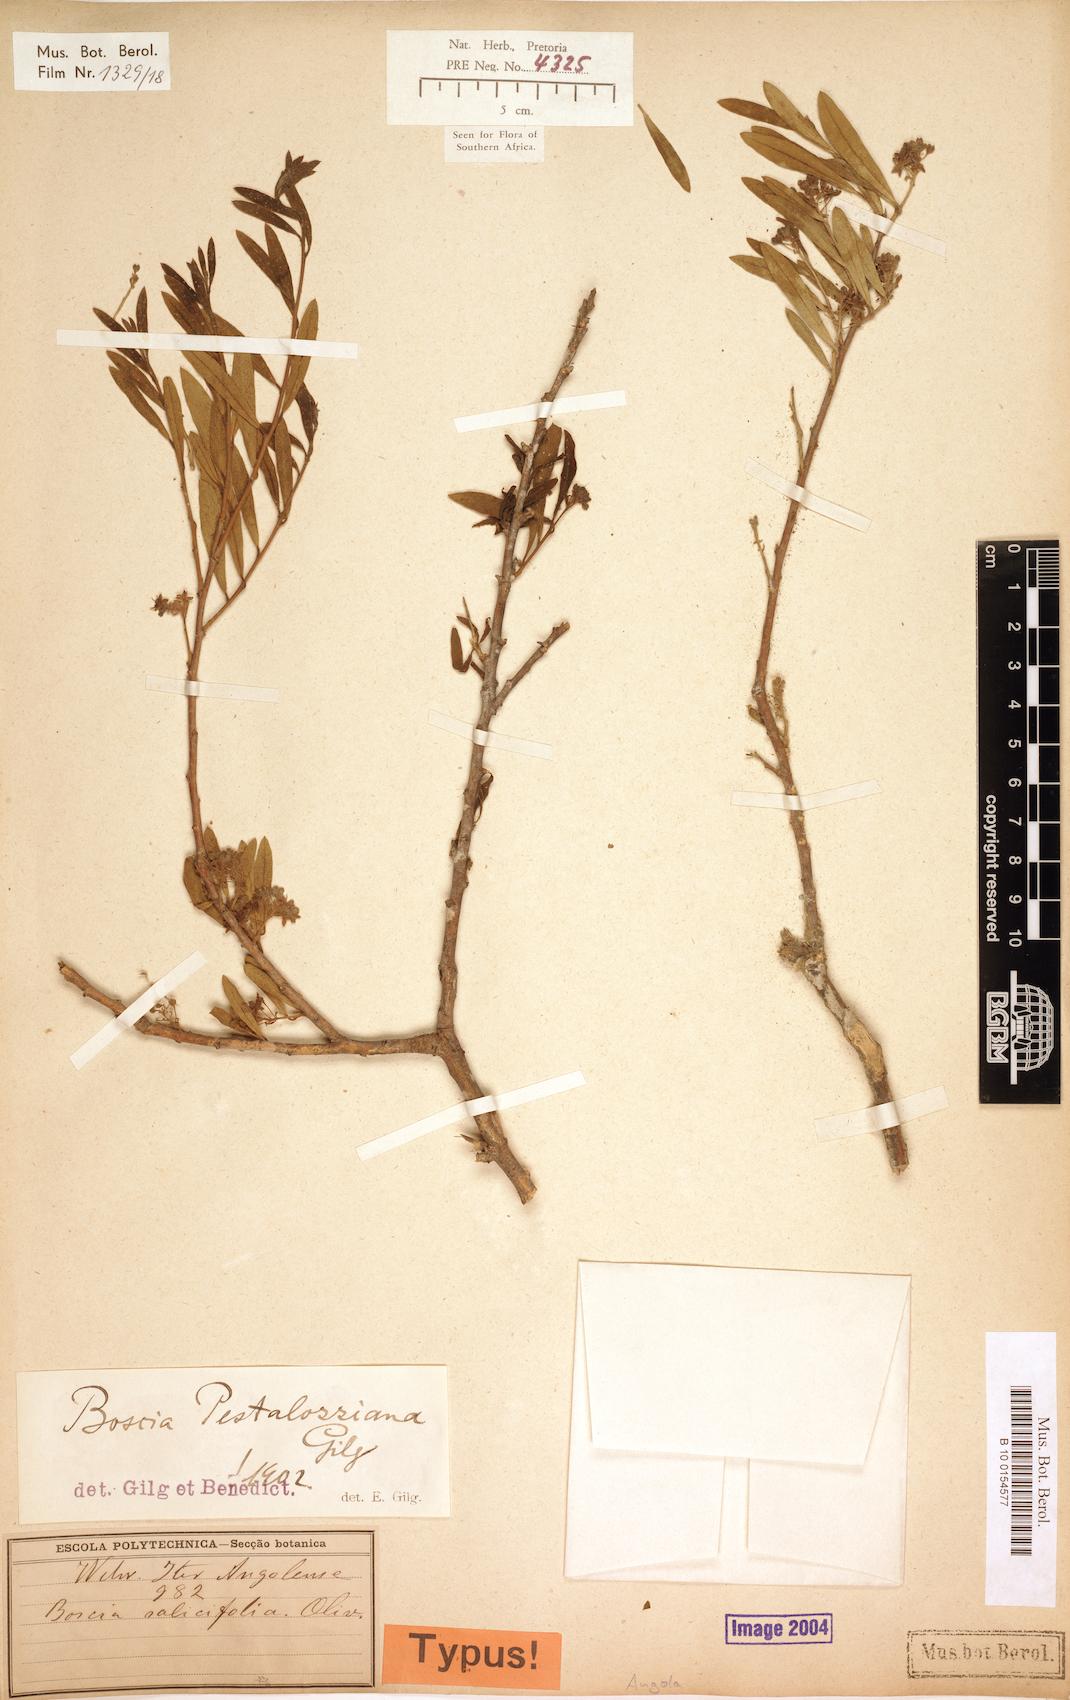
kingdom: Plantae
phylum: Tracheophyta
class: Magnoliopsida
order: Brassicales
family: Capparaceae
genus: Boscia
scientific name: Boscia pestalozziana
